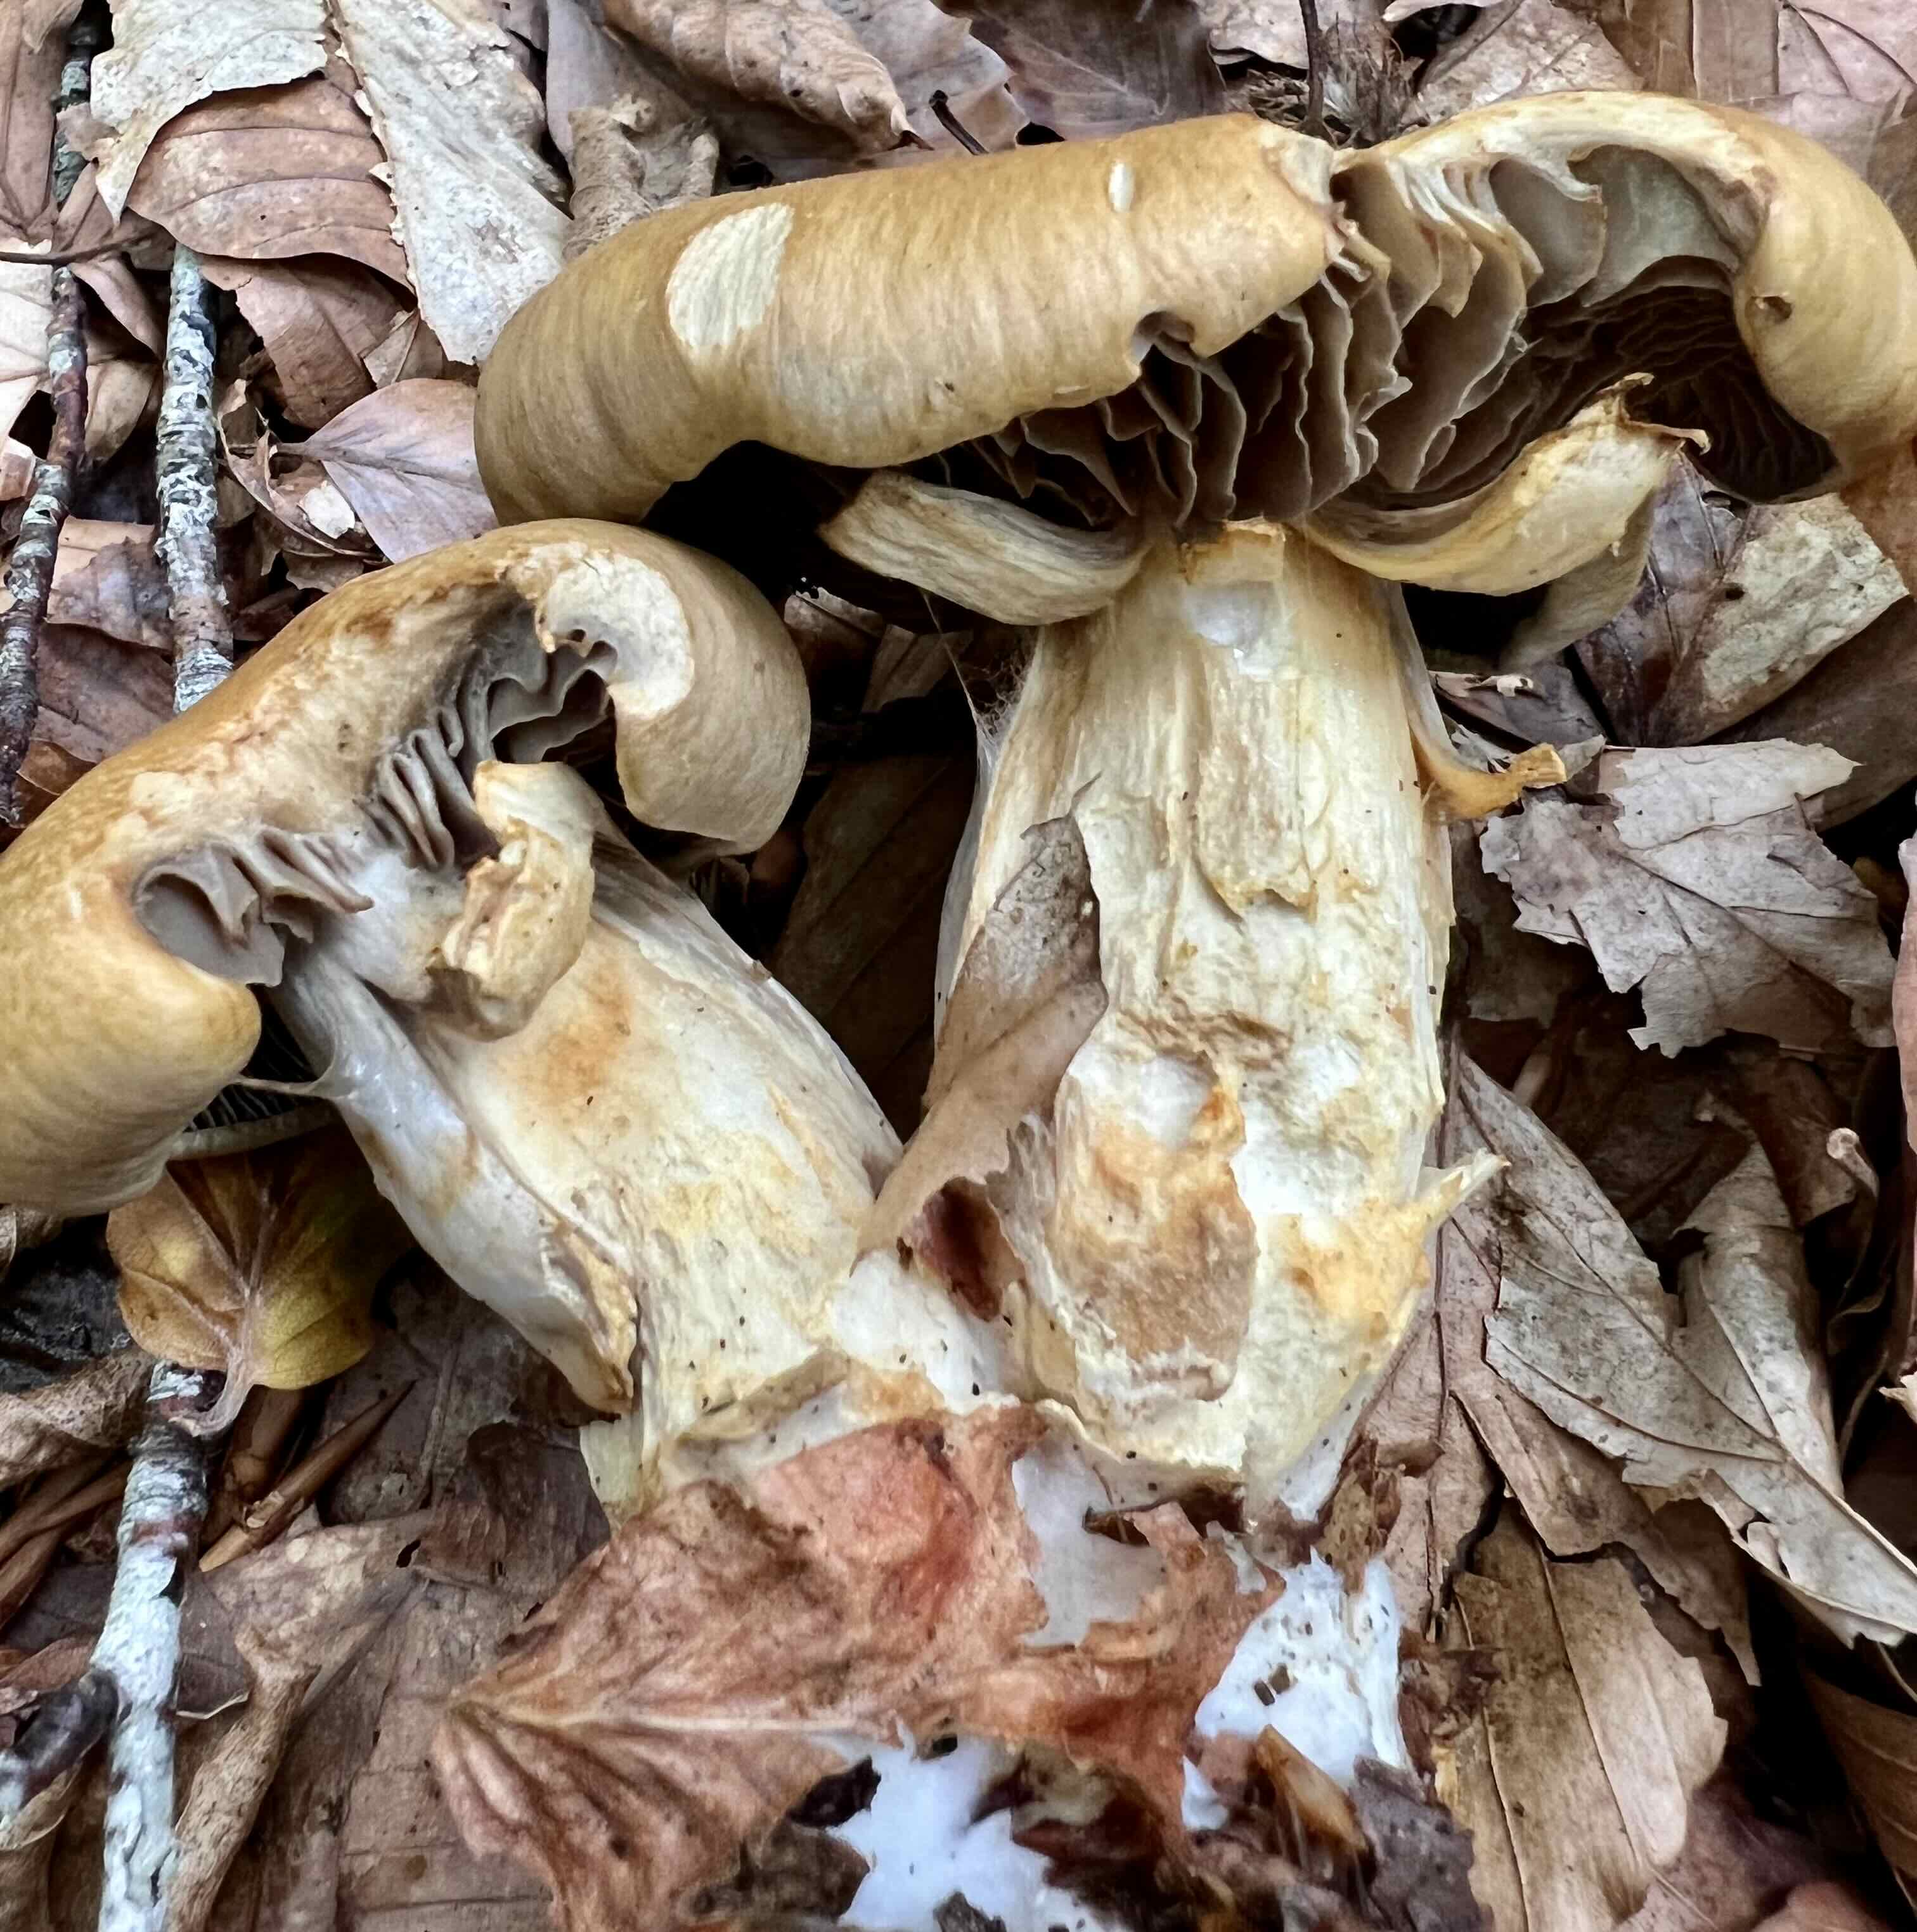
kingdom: Fungi
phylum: Basidiomycota
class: Agaricomycetes
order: Agaricales
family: Cortinariaceae
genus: Cortinarius
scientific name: Cortinarius subtortus
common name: olivengul slørhat
